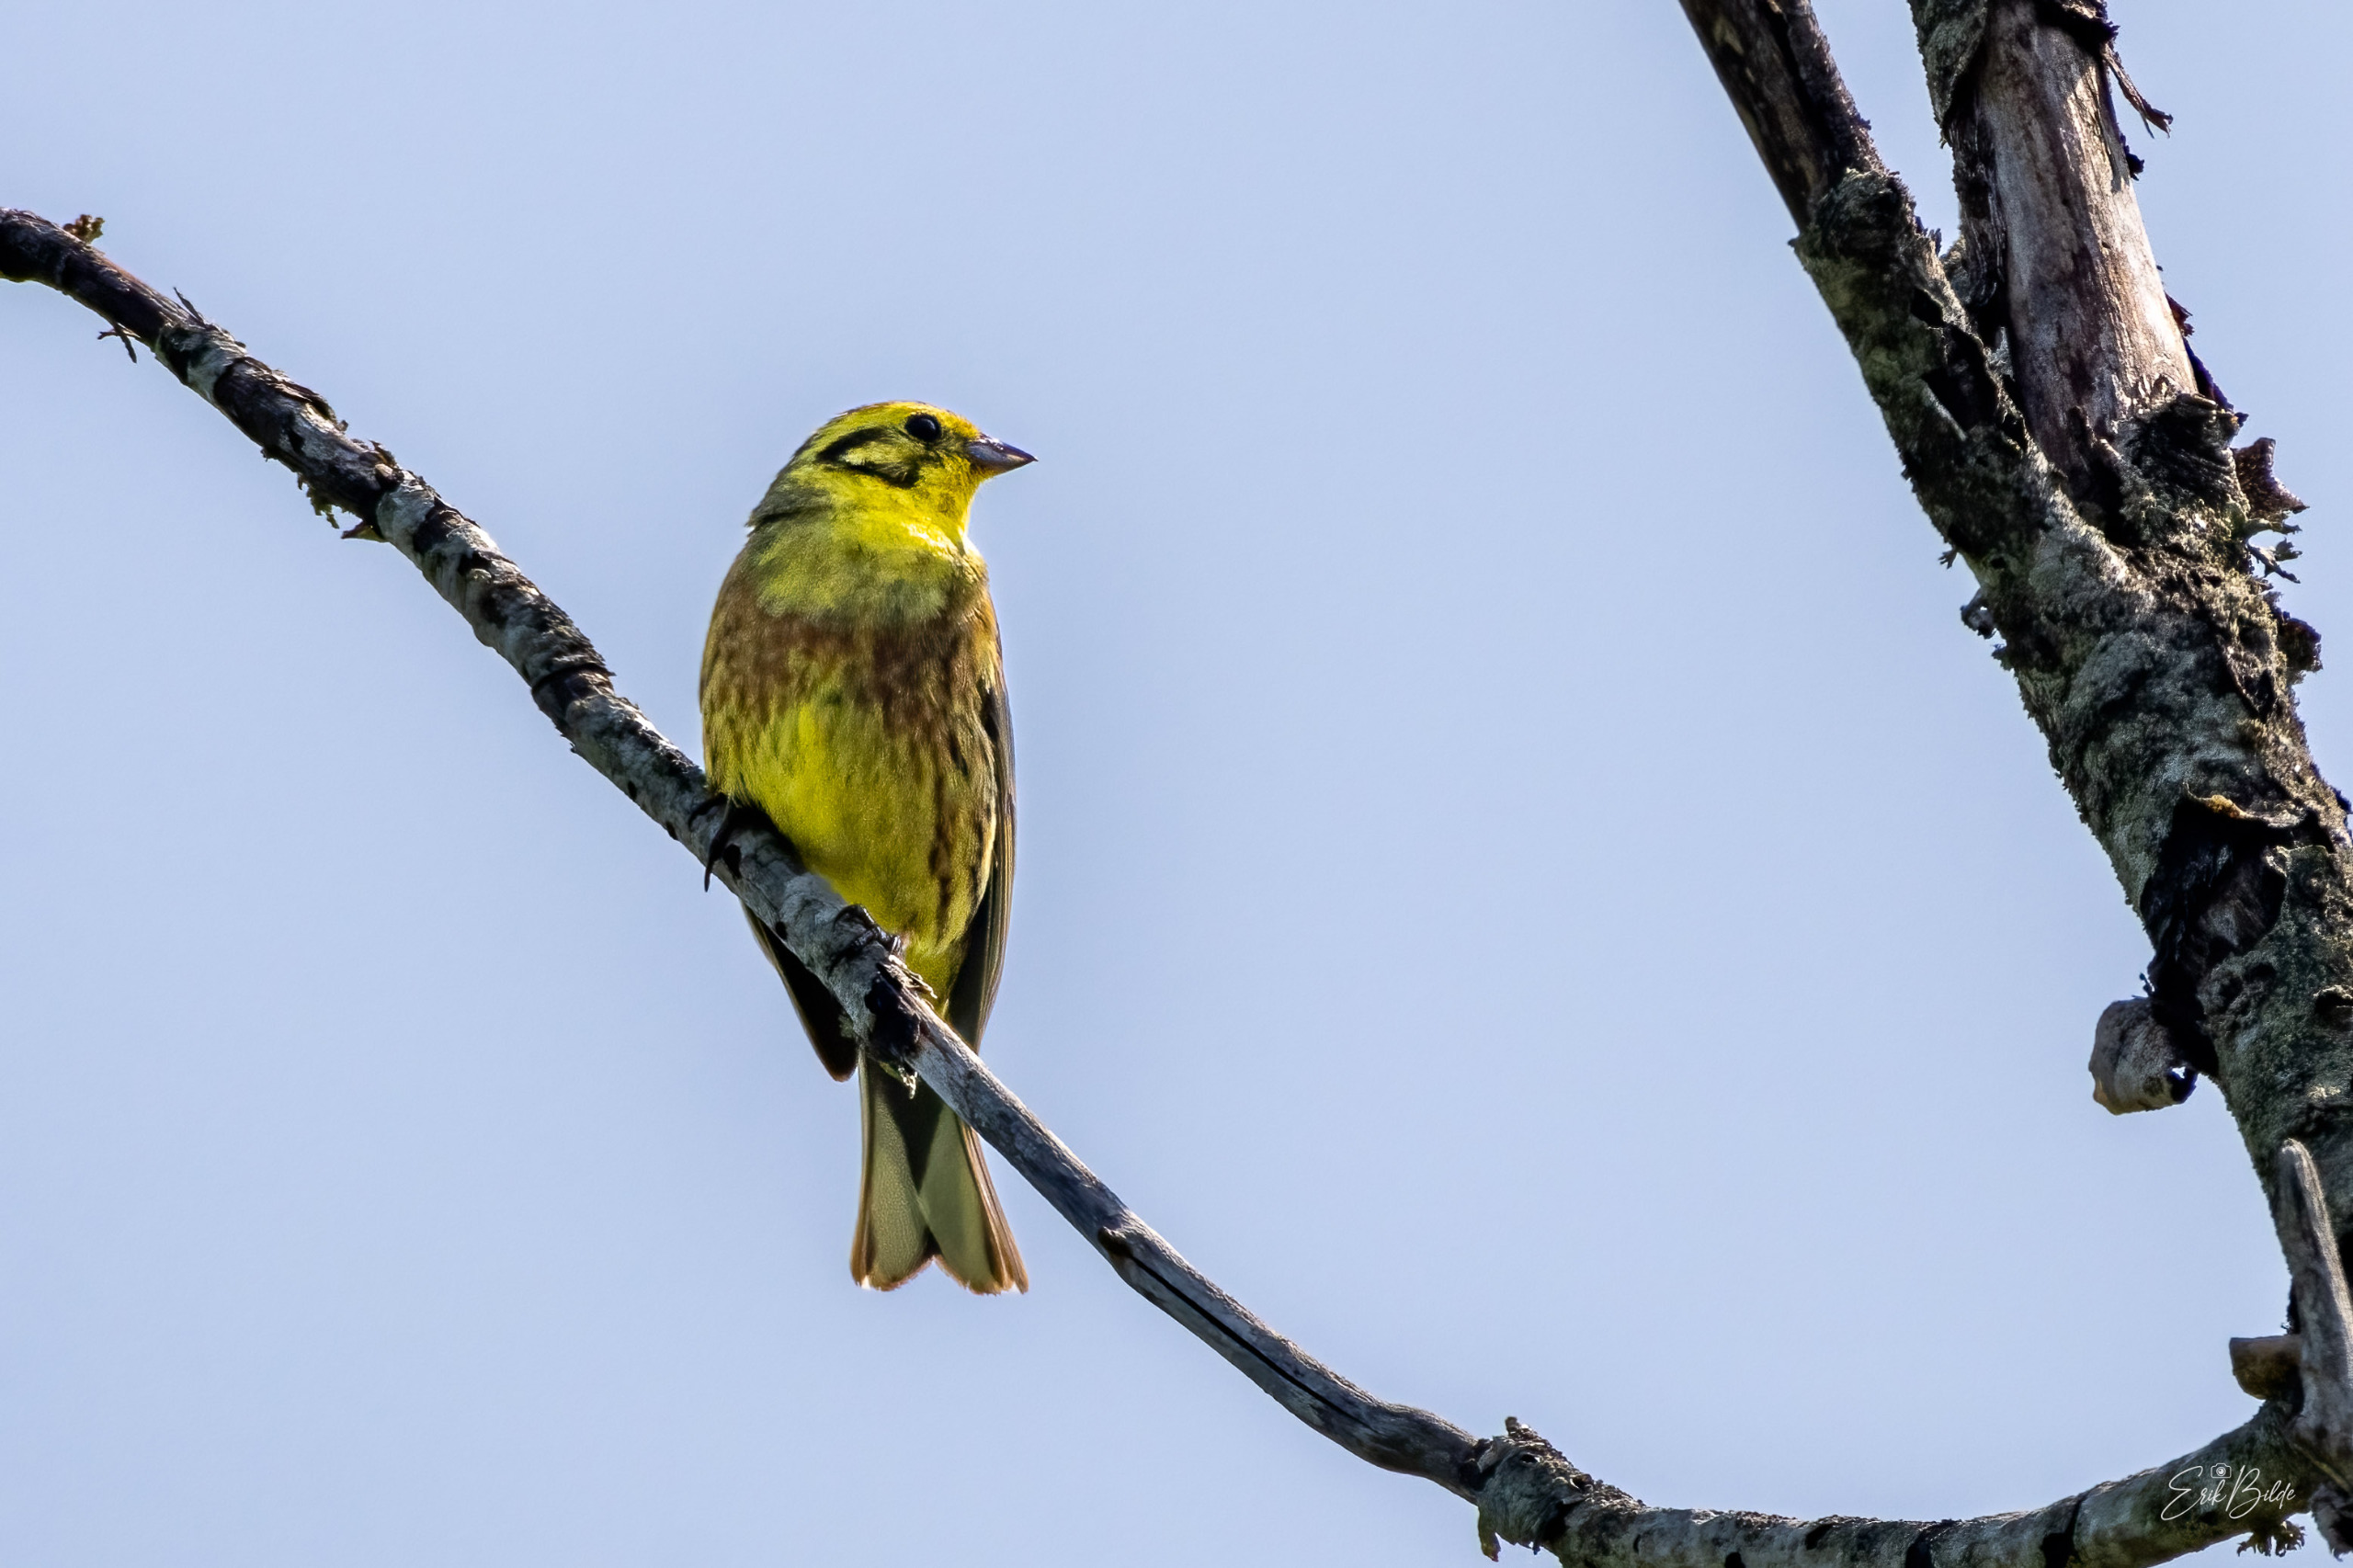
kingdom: Animalia
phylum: Chordata
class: Aves
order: Passeriformes
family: Emberizidae
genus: Emberiza
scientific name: Emberiza citrinella
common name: Gulspurv
